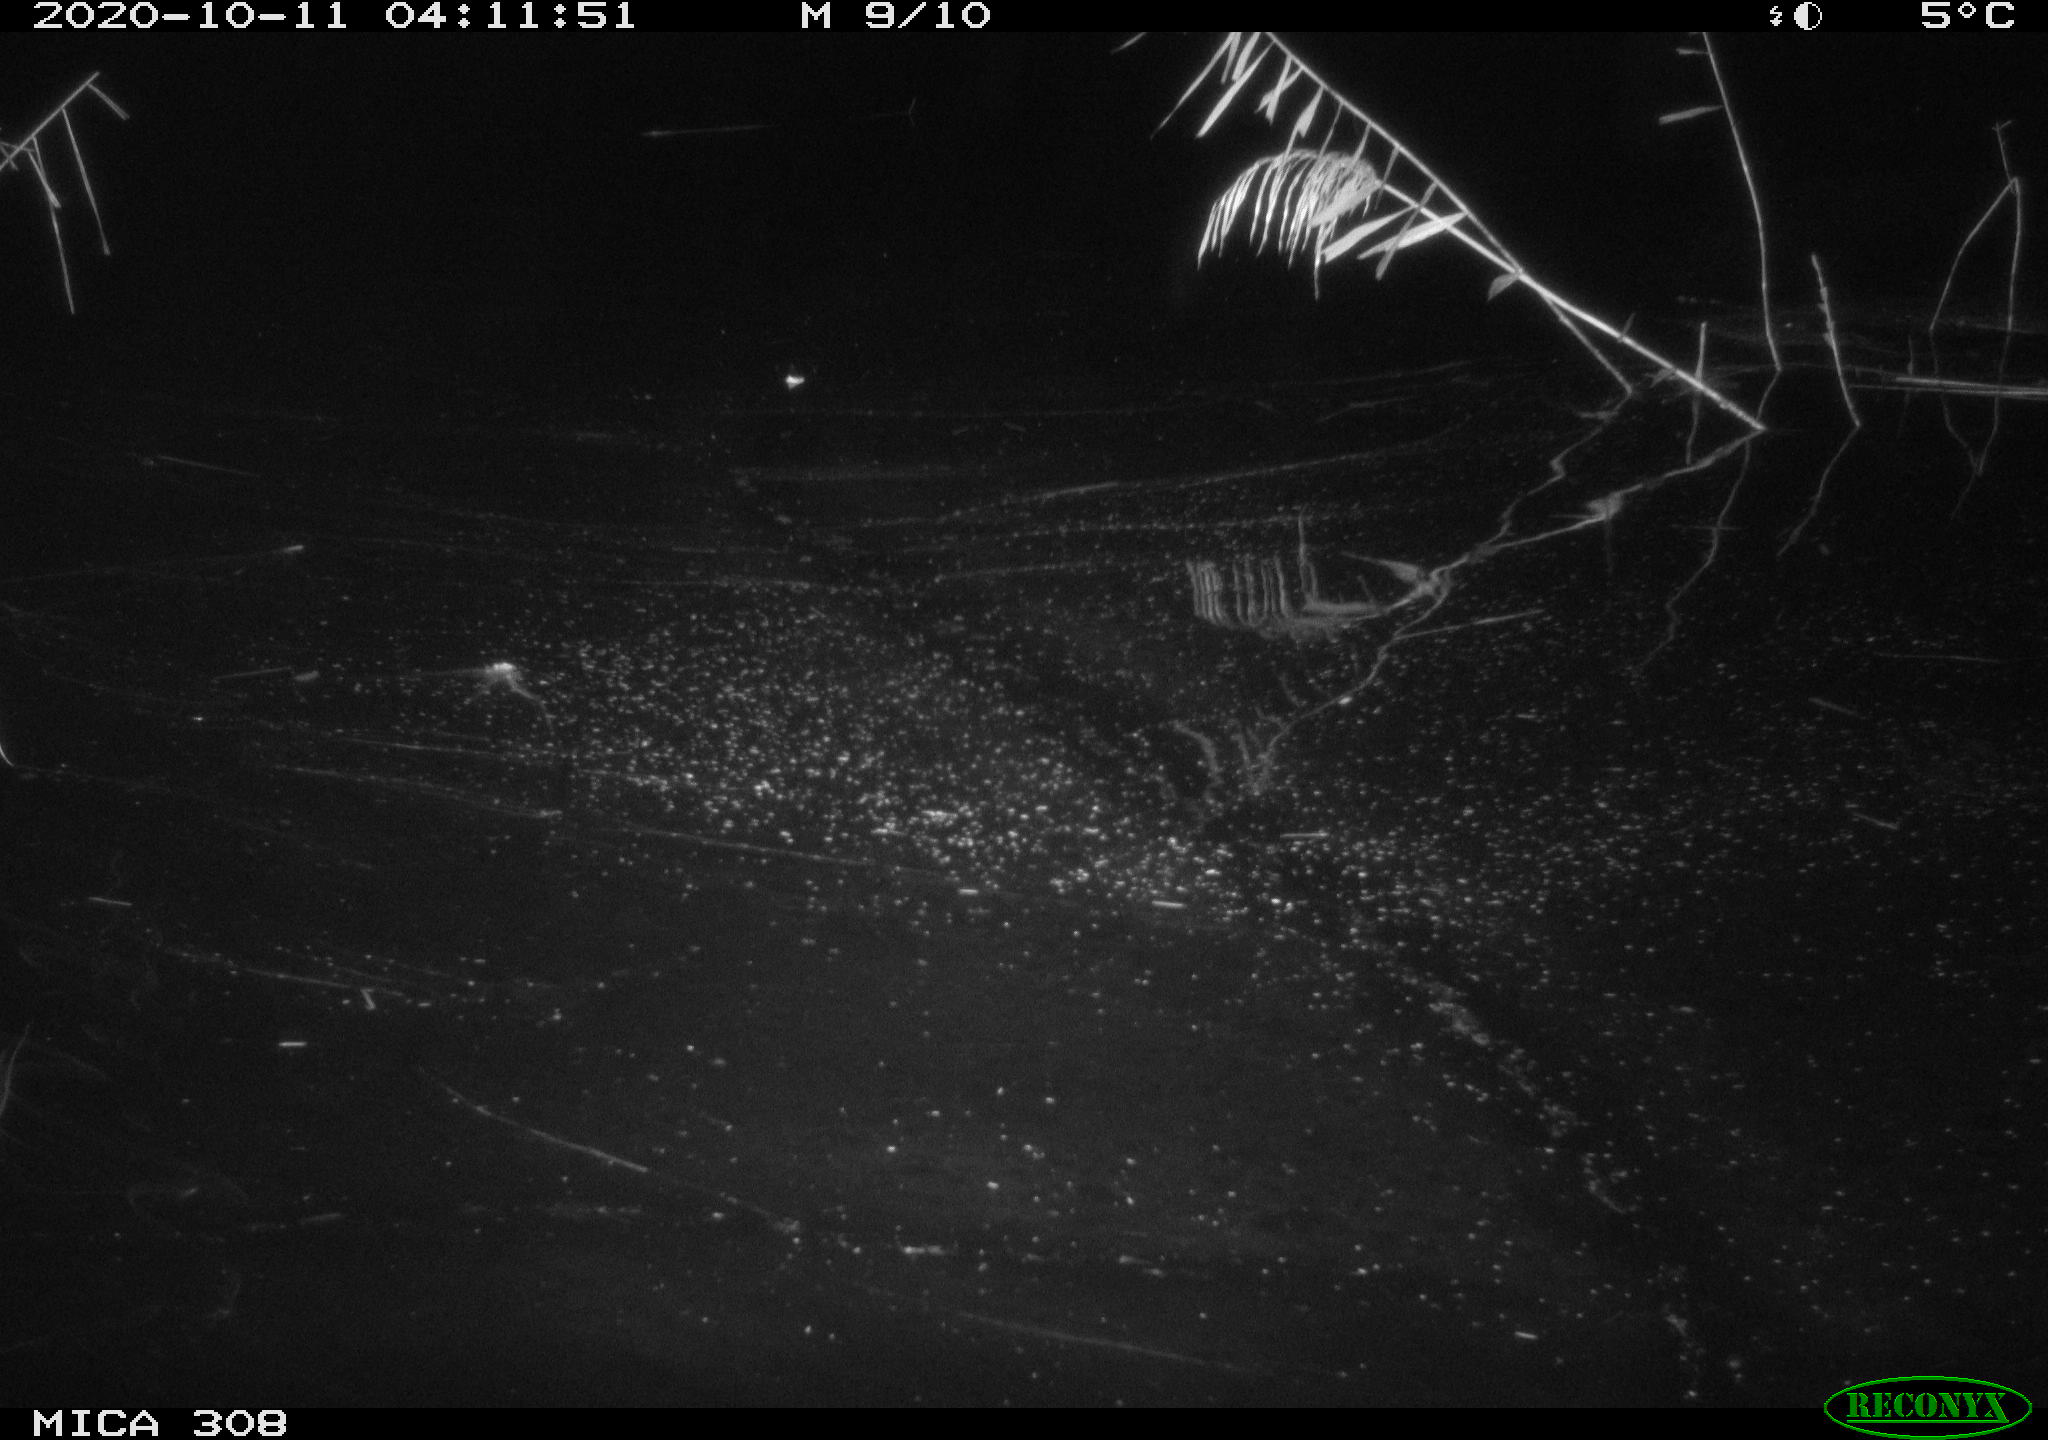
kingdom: Animalia
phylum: Chordata
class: Aves
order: Gruiformes
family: Rallidae
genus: Gallinula
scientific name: Gallinula chloropus
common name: Common moorhen
